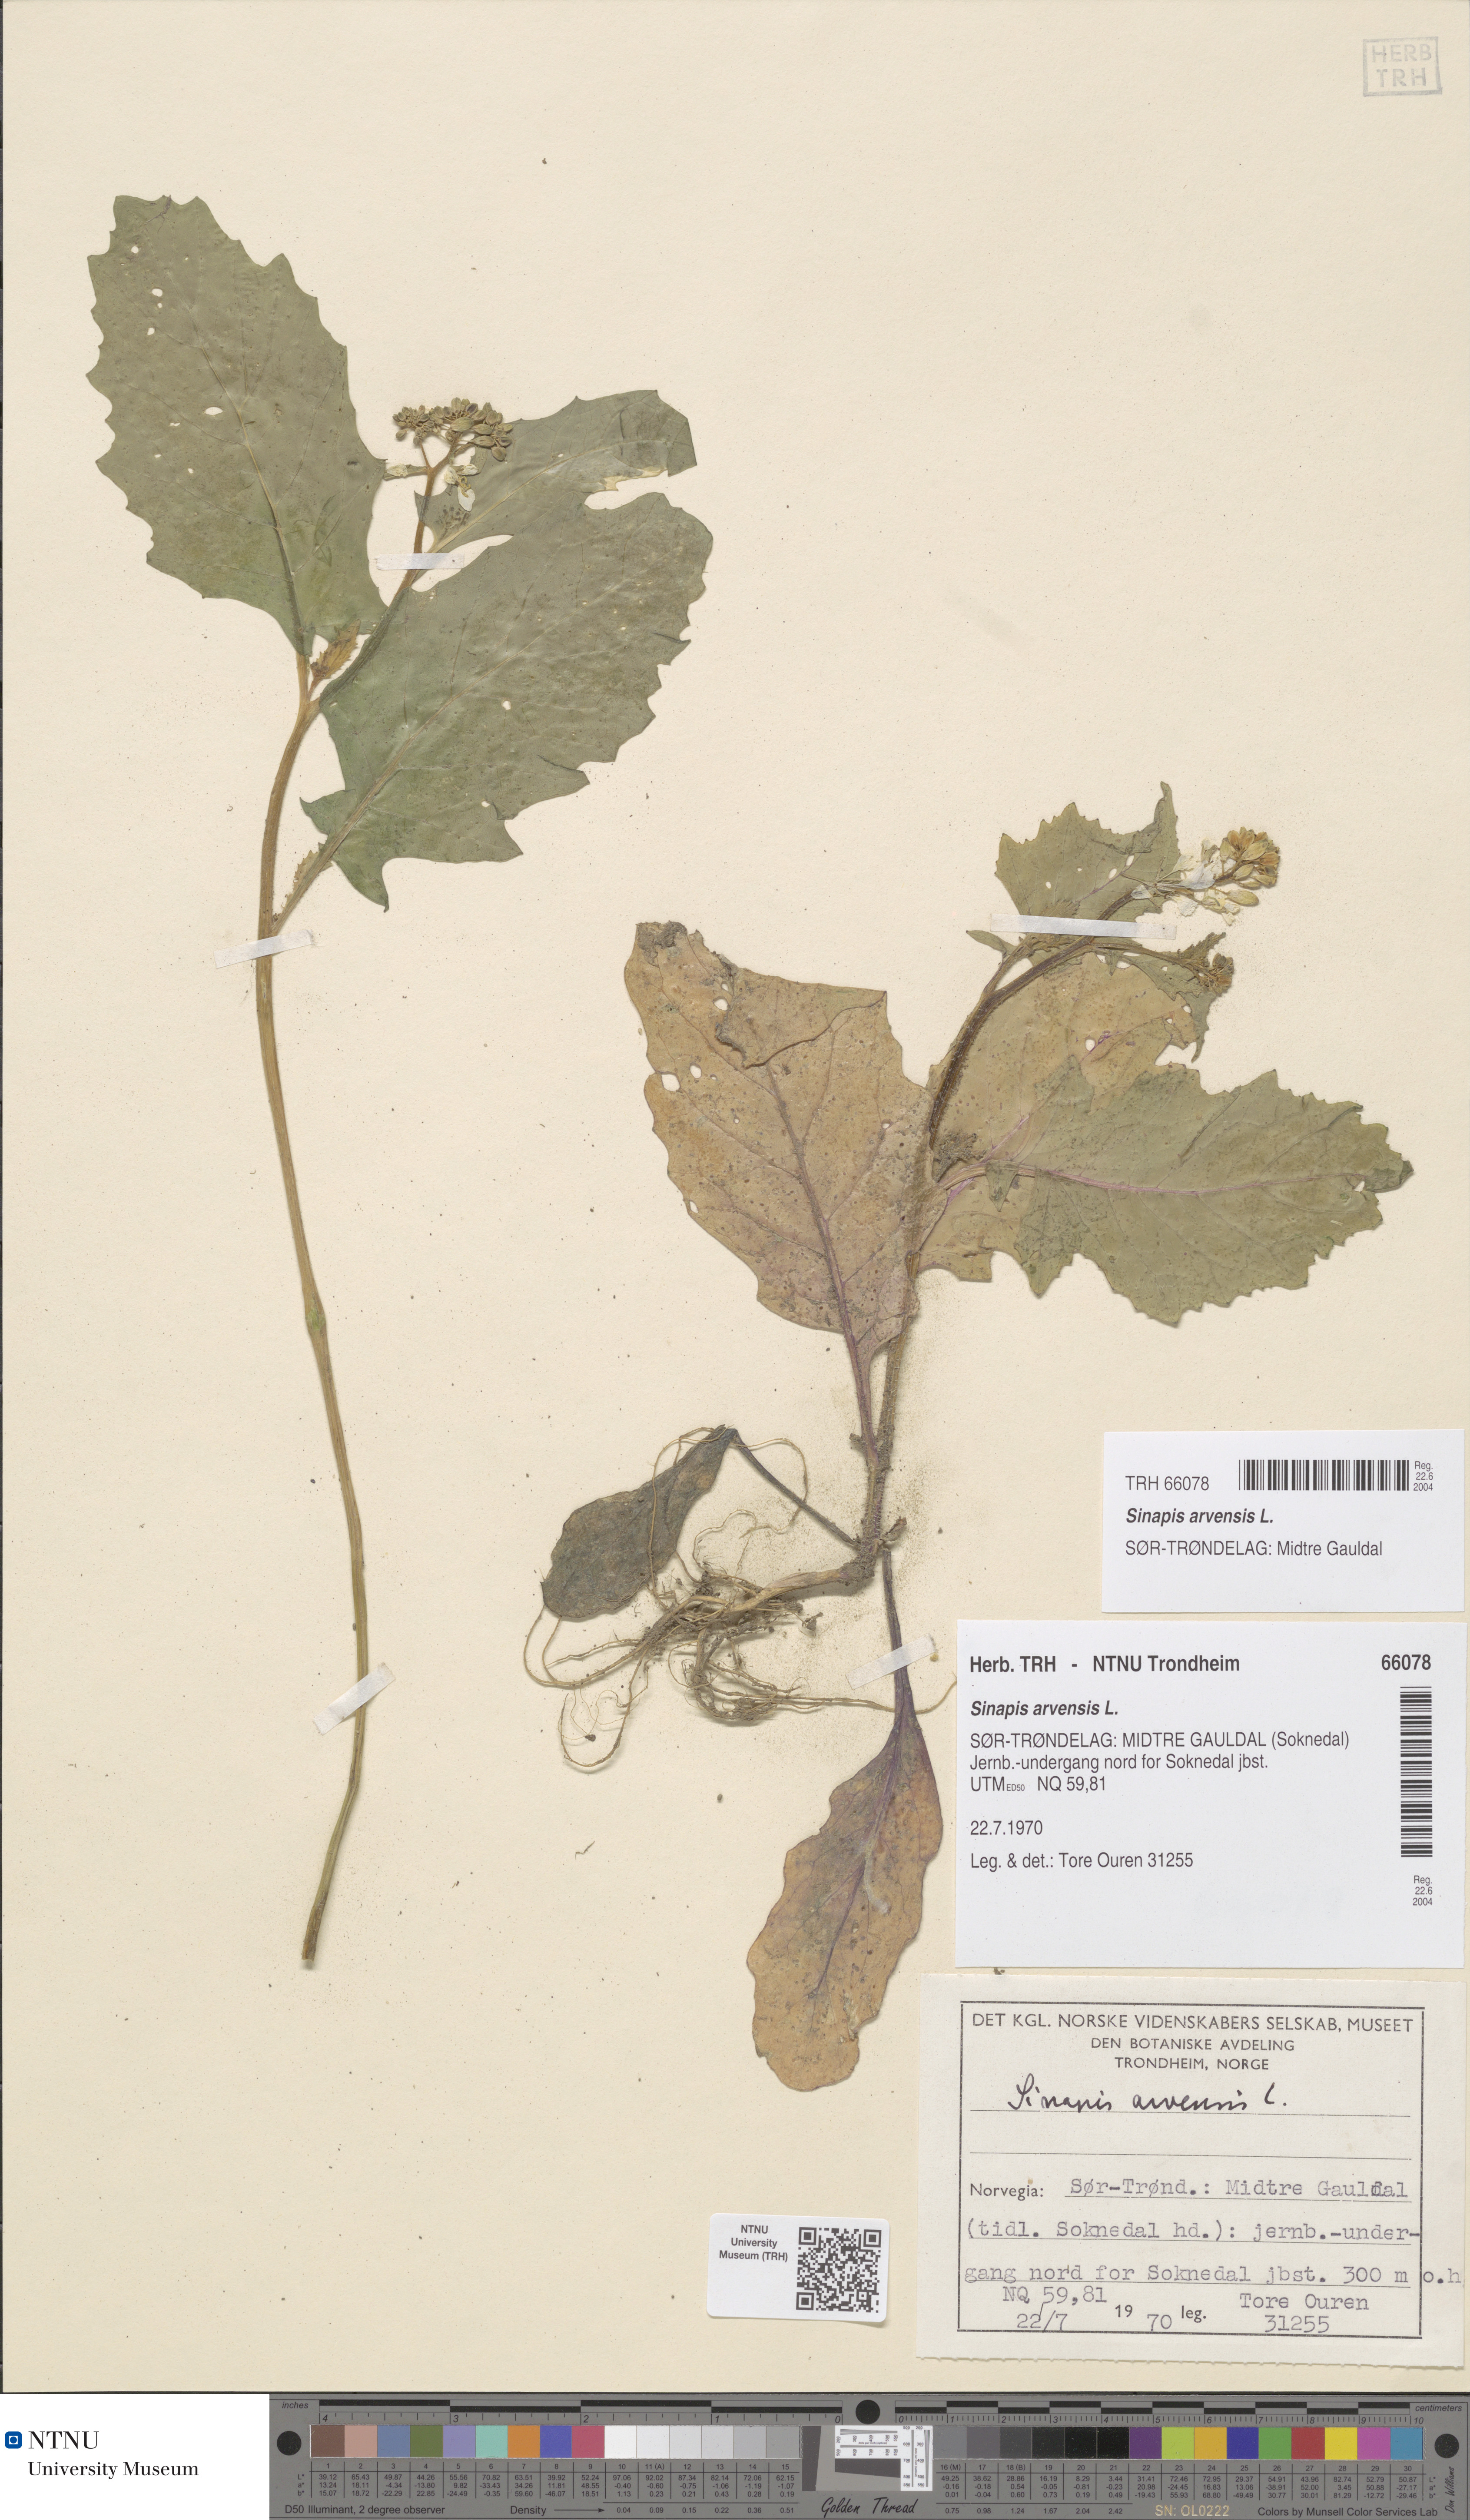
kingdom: Plantae
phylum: Tracheophyta
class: Magnoliopsida
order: Brassicales
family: Brassicaceae
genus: Sinapis
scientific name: Sinapis arvensis
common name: Charlock
